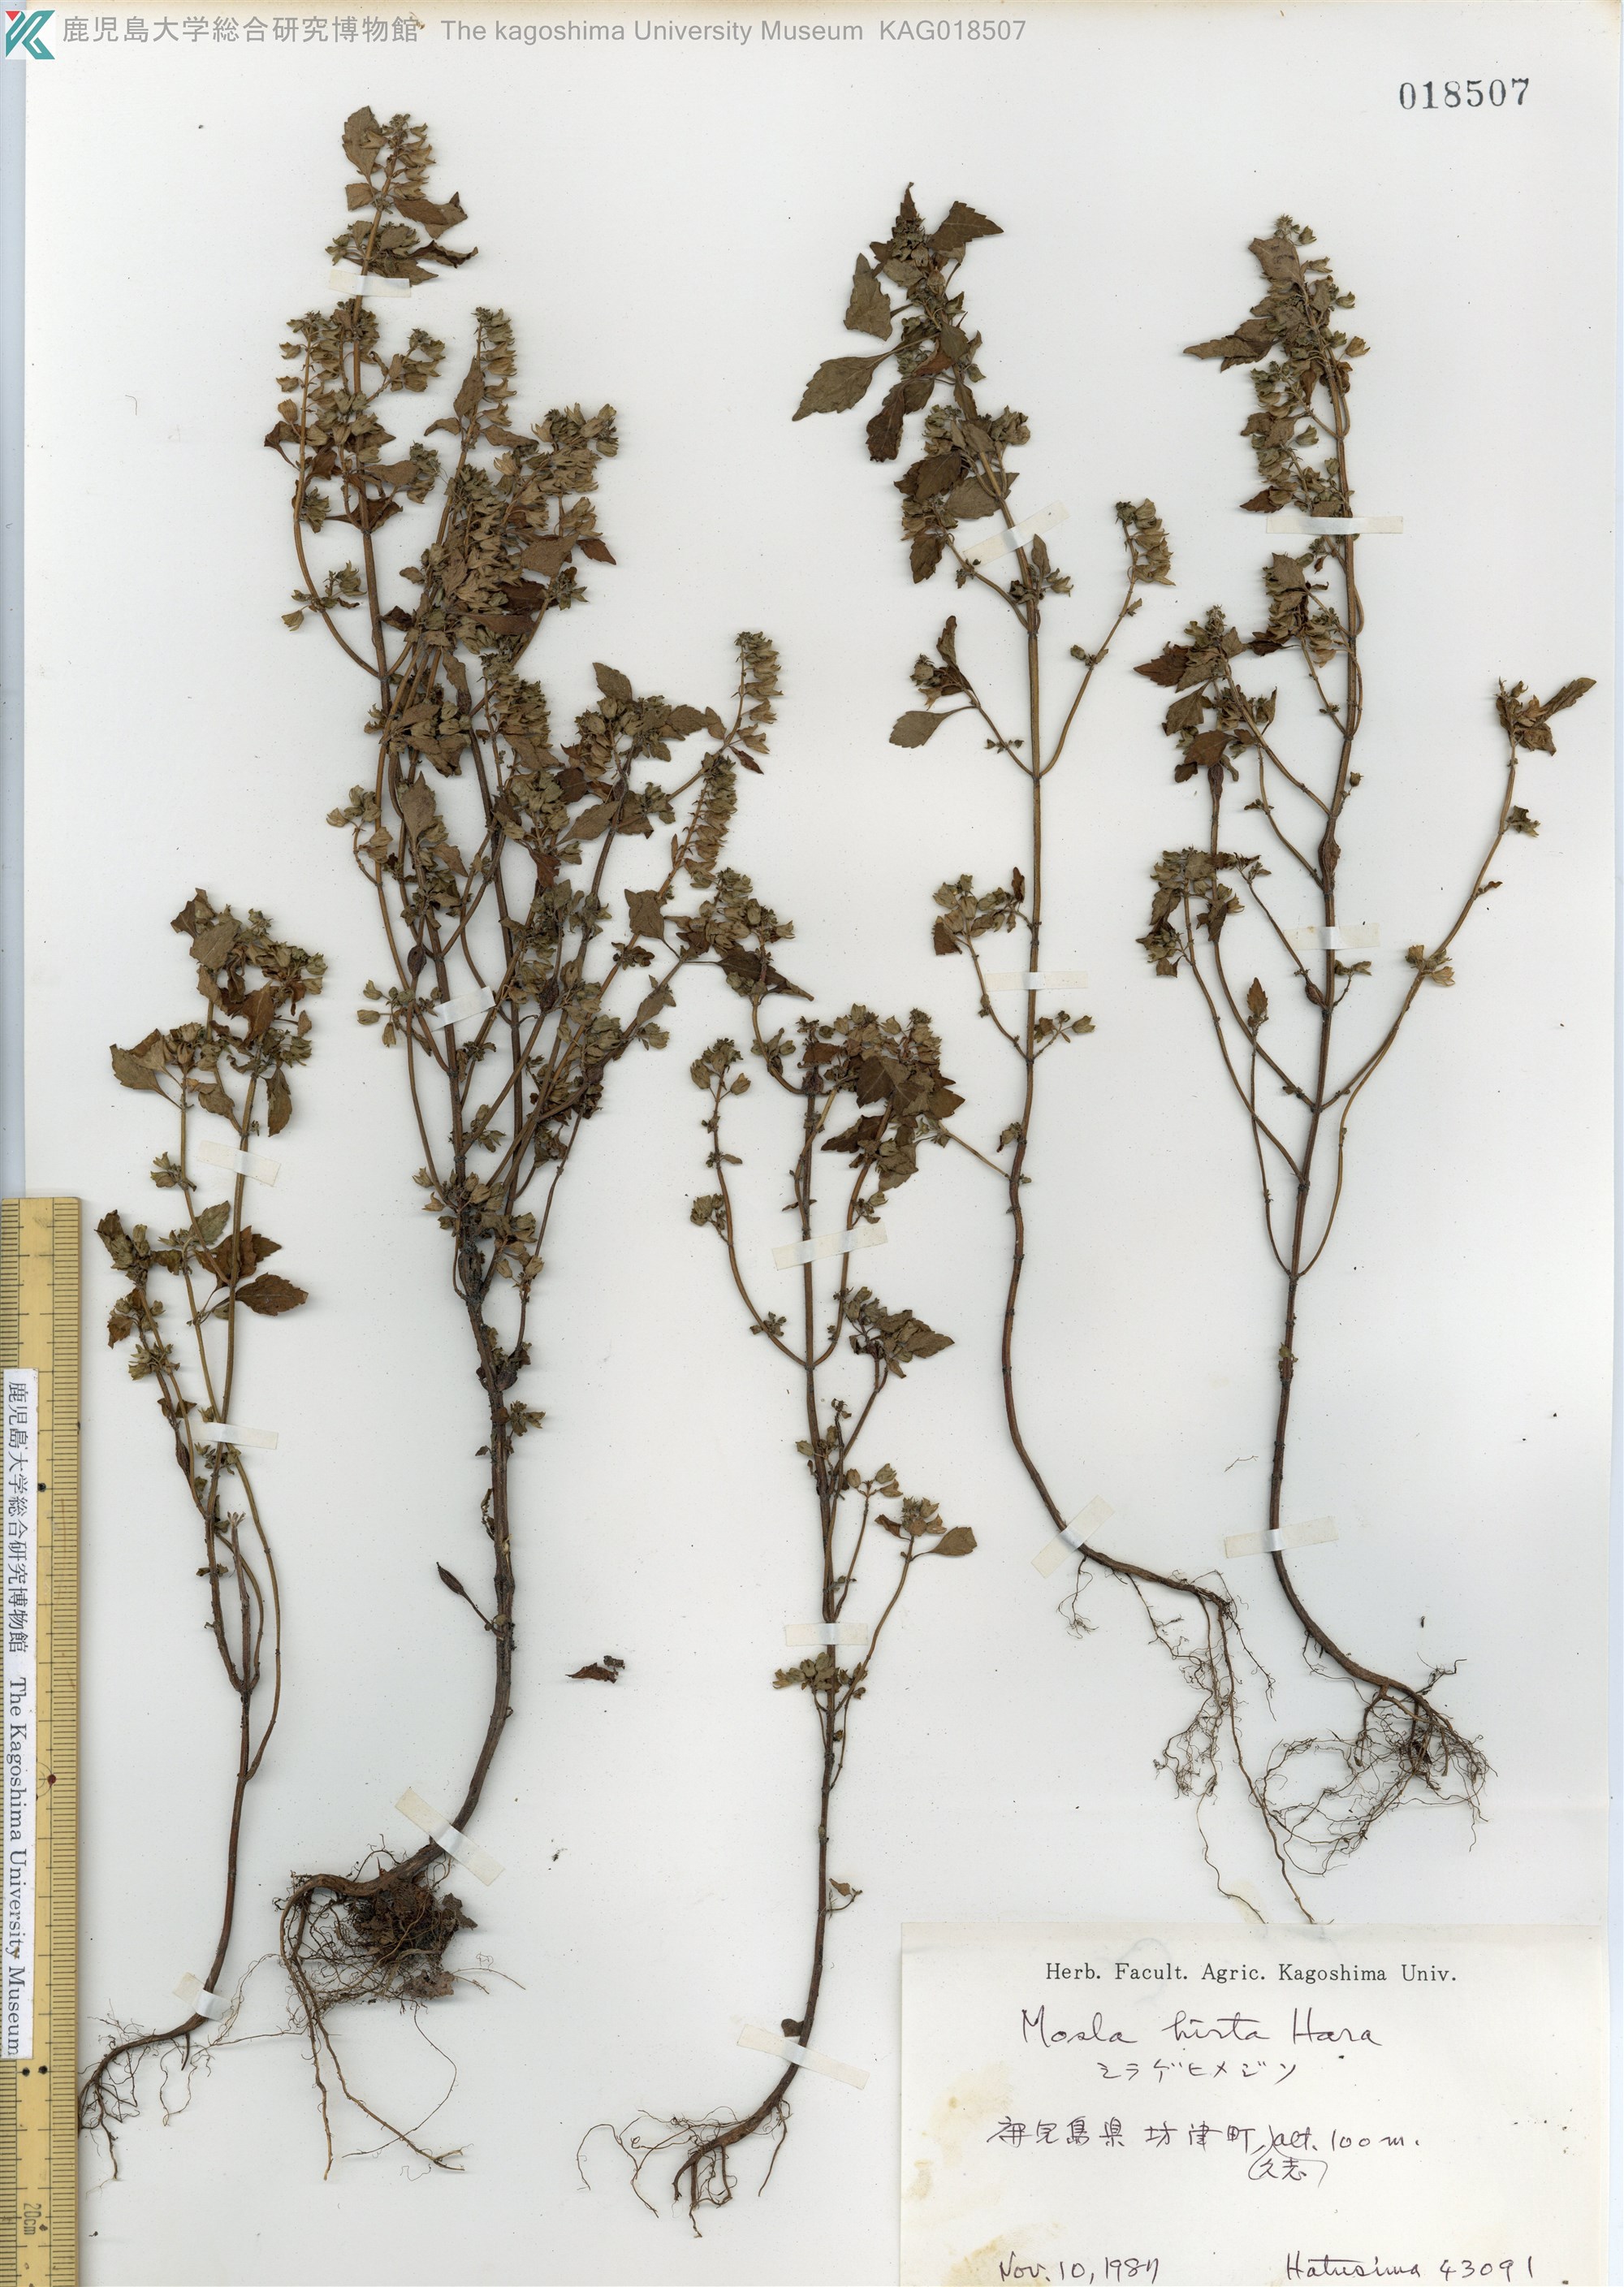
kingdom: Plantae
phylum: Tracheophyta
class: Magnoliopsida
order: Lamiales
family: Lamiaceae
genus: Mosla
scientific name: Mosla dianthera
